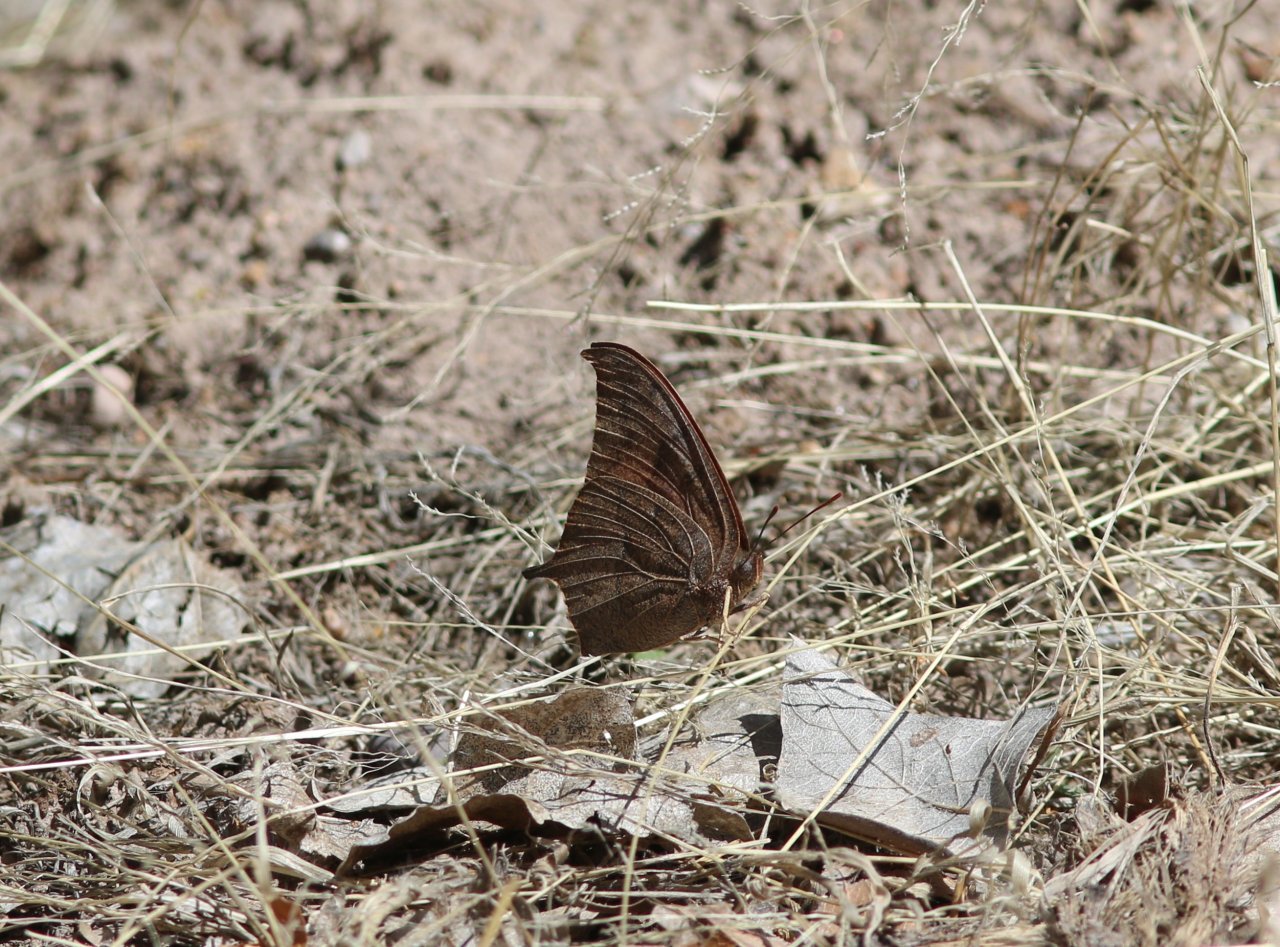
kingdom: Animalia
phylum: Arthropoda
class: Insecta
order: Lepidoptera
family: Nymphalidae
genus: Anaea
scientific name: Anaea andria
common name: Goatweed Leafwing
